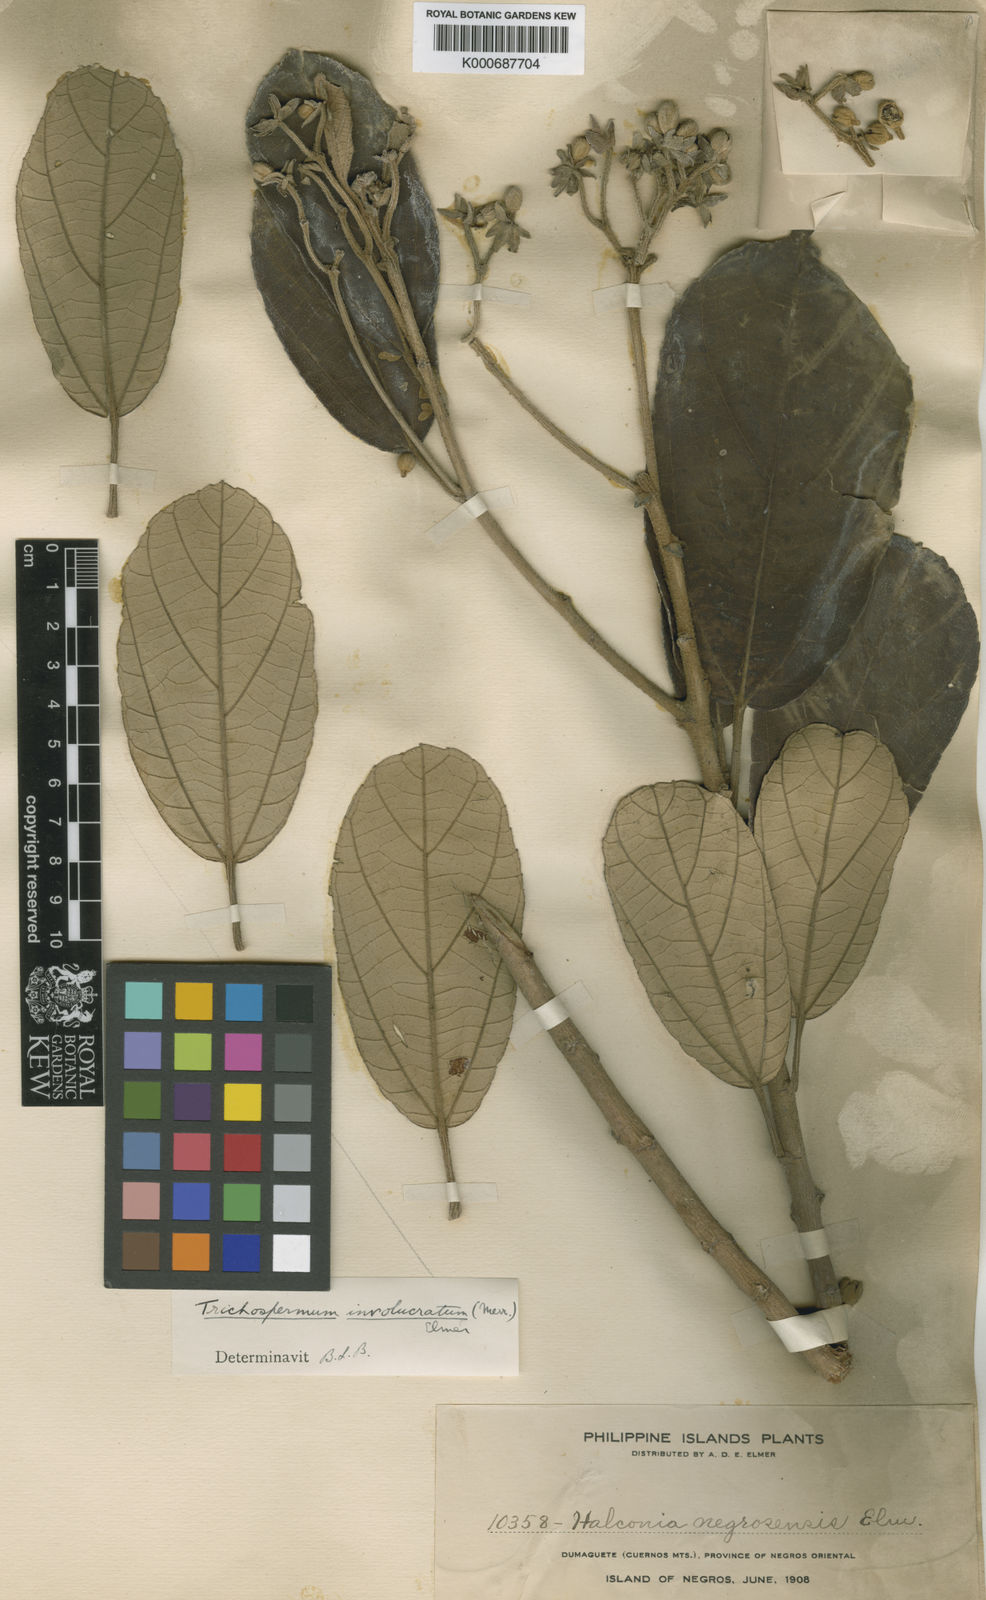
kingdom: Plantae
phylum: Tracheophyta
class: Magnoliopsida
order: Malvales
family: Malvaceae
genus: Trichospermum
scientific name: Trichospermum involucratum
